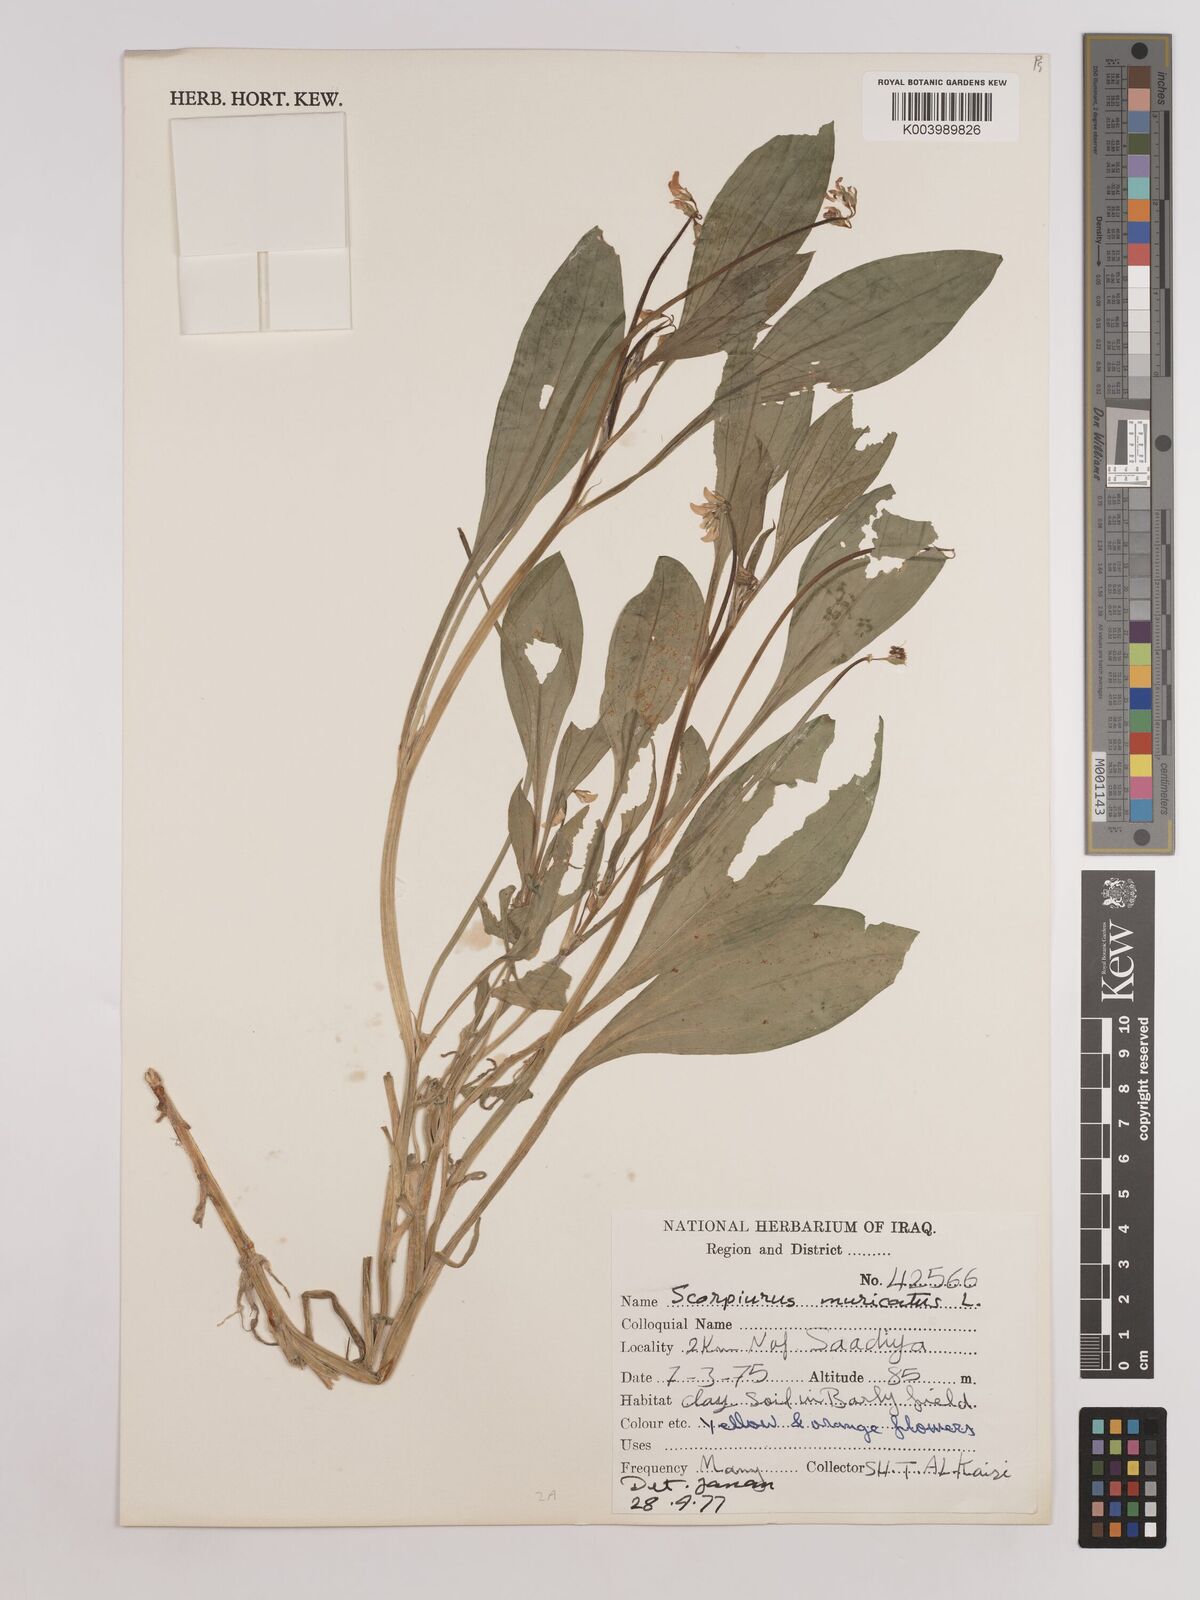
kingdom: Plantae
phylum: Tracheophyta
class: Magnoliopsida
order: Fabales
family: Fabaceae
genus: Scorpiurus
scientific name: Scorpiurus muricatus
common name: Caterpillar-plant
